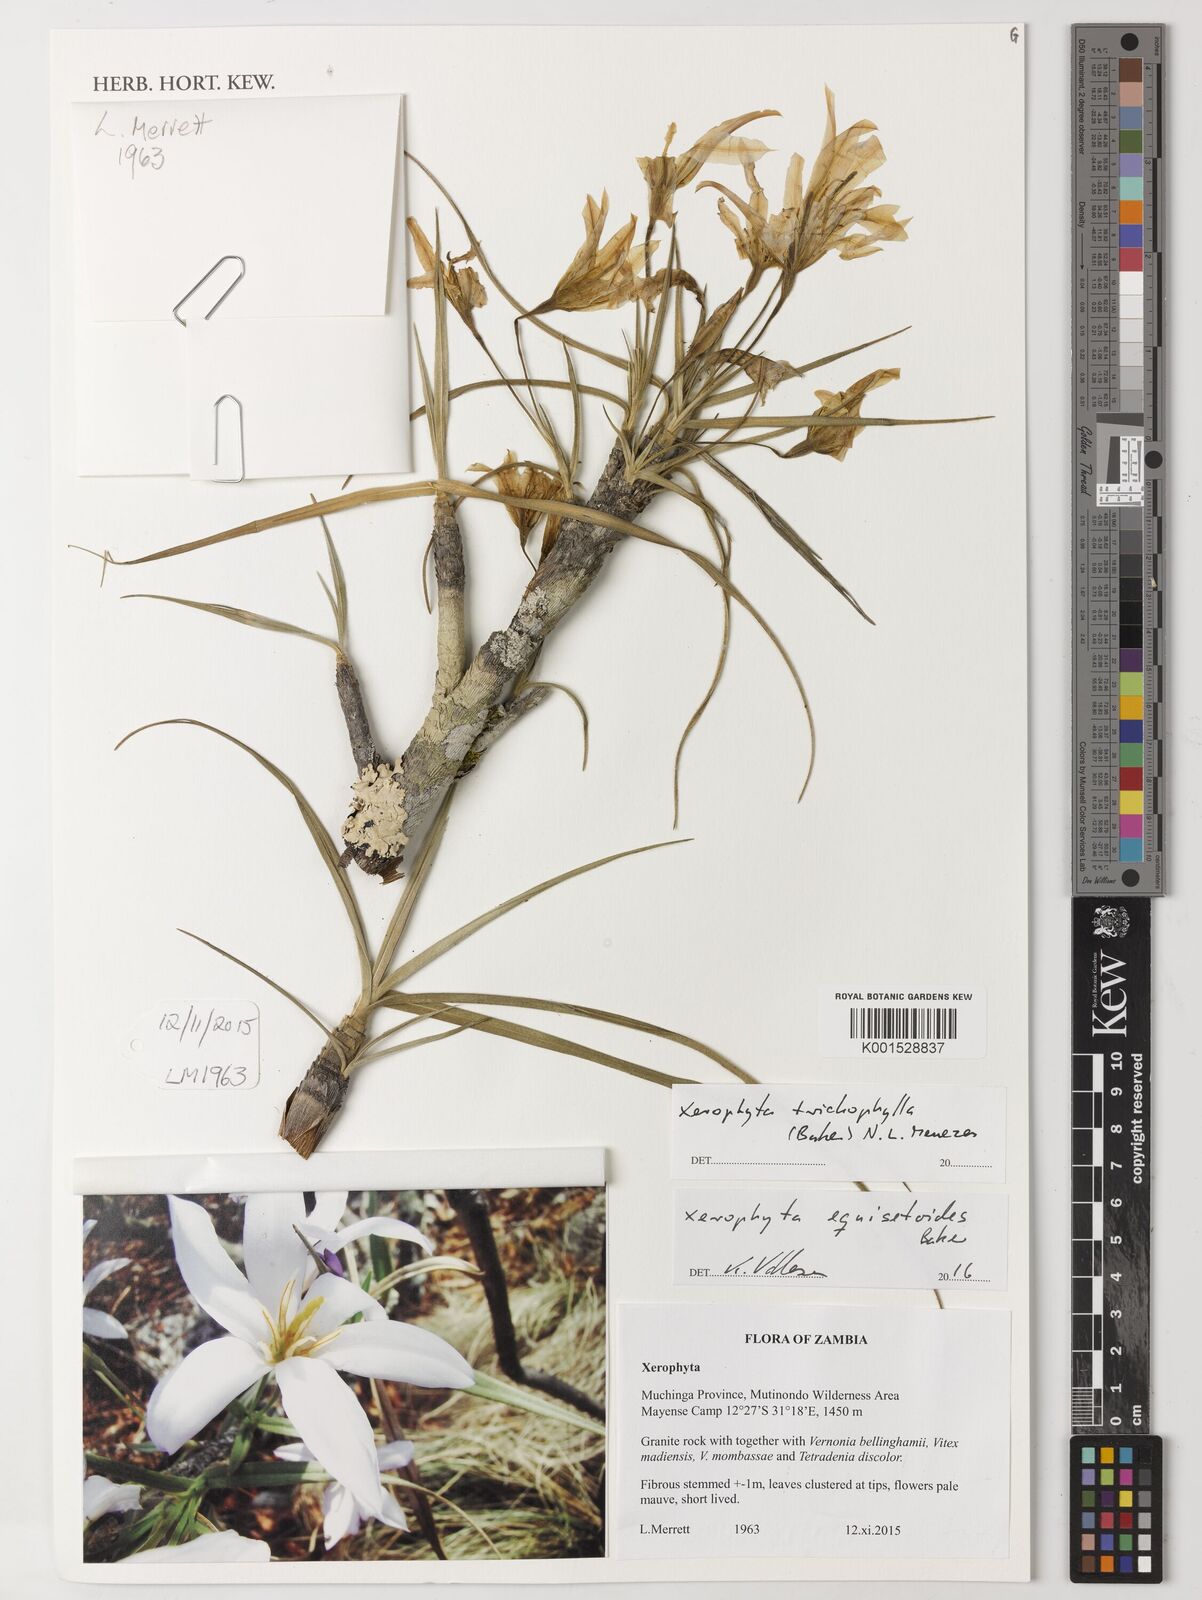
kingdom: Plantae
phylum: Tracheophyta
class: Liliopsida
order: Pandanales
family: Velloziaceae
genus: Xerophyta
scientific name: Xerophyta trichophylla
